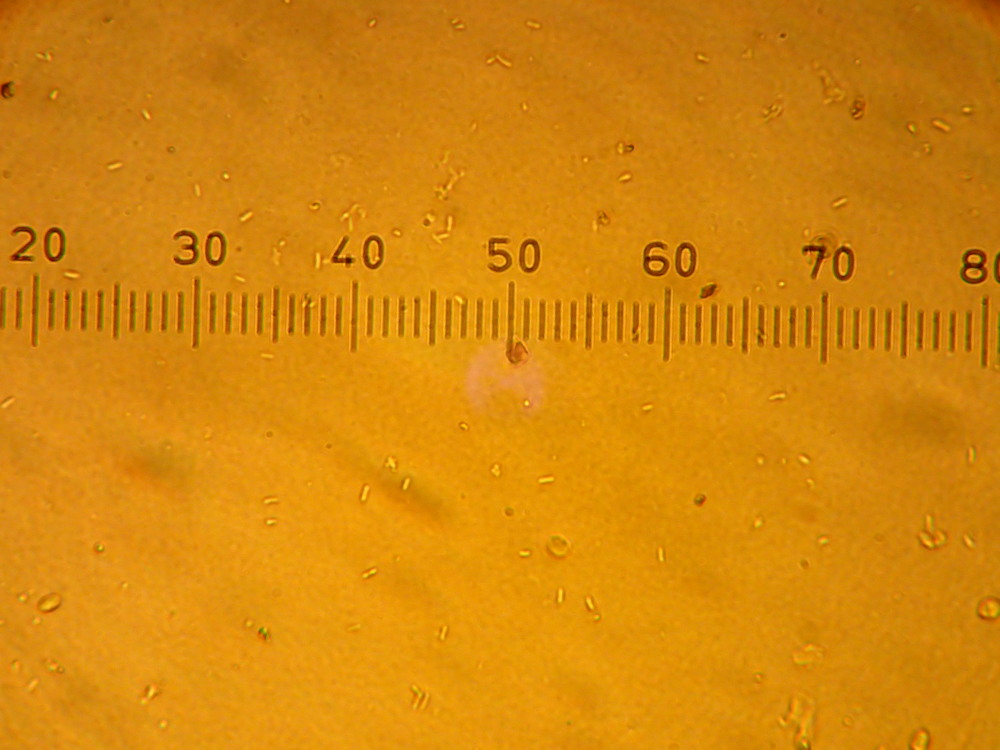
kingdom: Fungi
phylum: Ascomycota
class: Lecanoromycetes
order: Acarosporales
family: Acarosporaceae
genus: Acarospora
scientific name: Acarospora privigna
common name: sort foldekantlav
